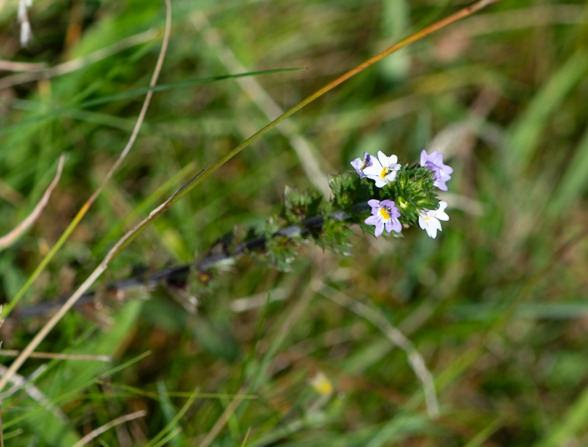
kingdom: Plantae
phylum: Tracheophyta
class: Magnoliopsida
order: Lamiales
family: Orobanchaceae
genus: Euphrasia
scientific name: Euphrasia
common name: Øjentrøstslægten
